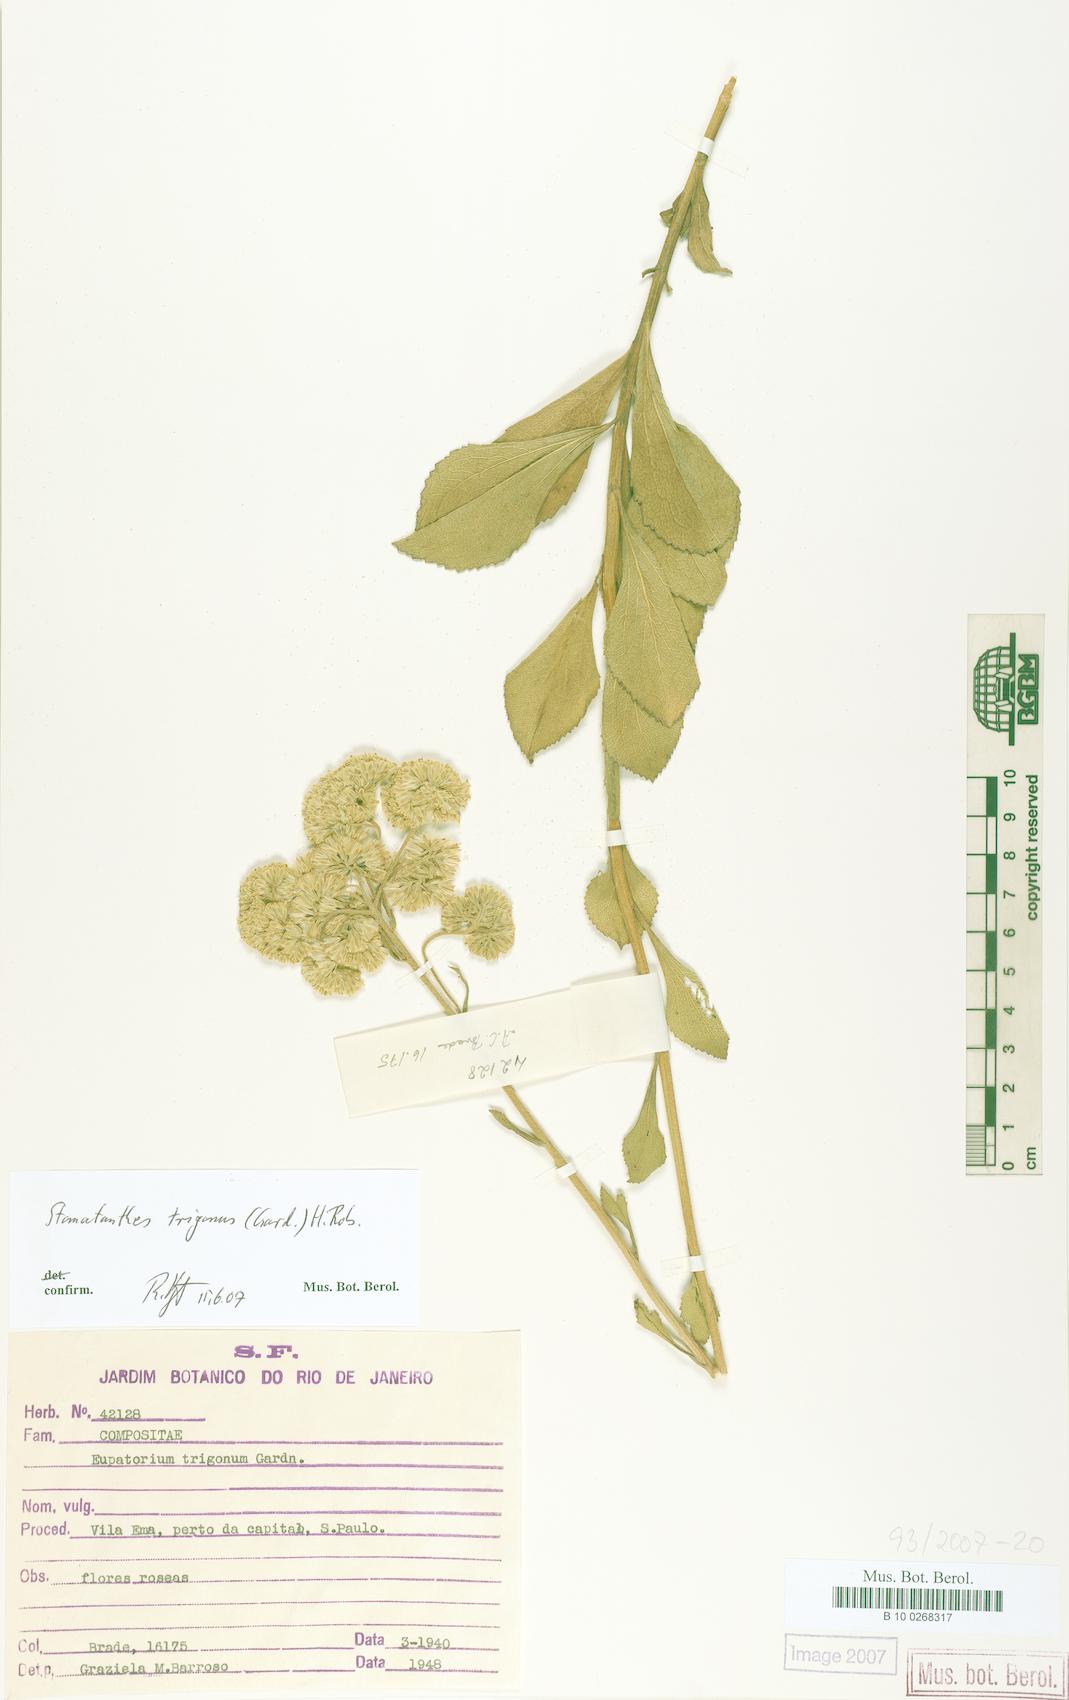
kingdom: Plantae
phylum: Tracheophyta
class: Magnoliopsida
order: Asterales
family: Asteraceae
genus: Stomatanthes
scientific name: Stomatanthes trigonus
